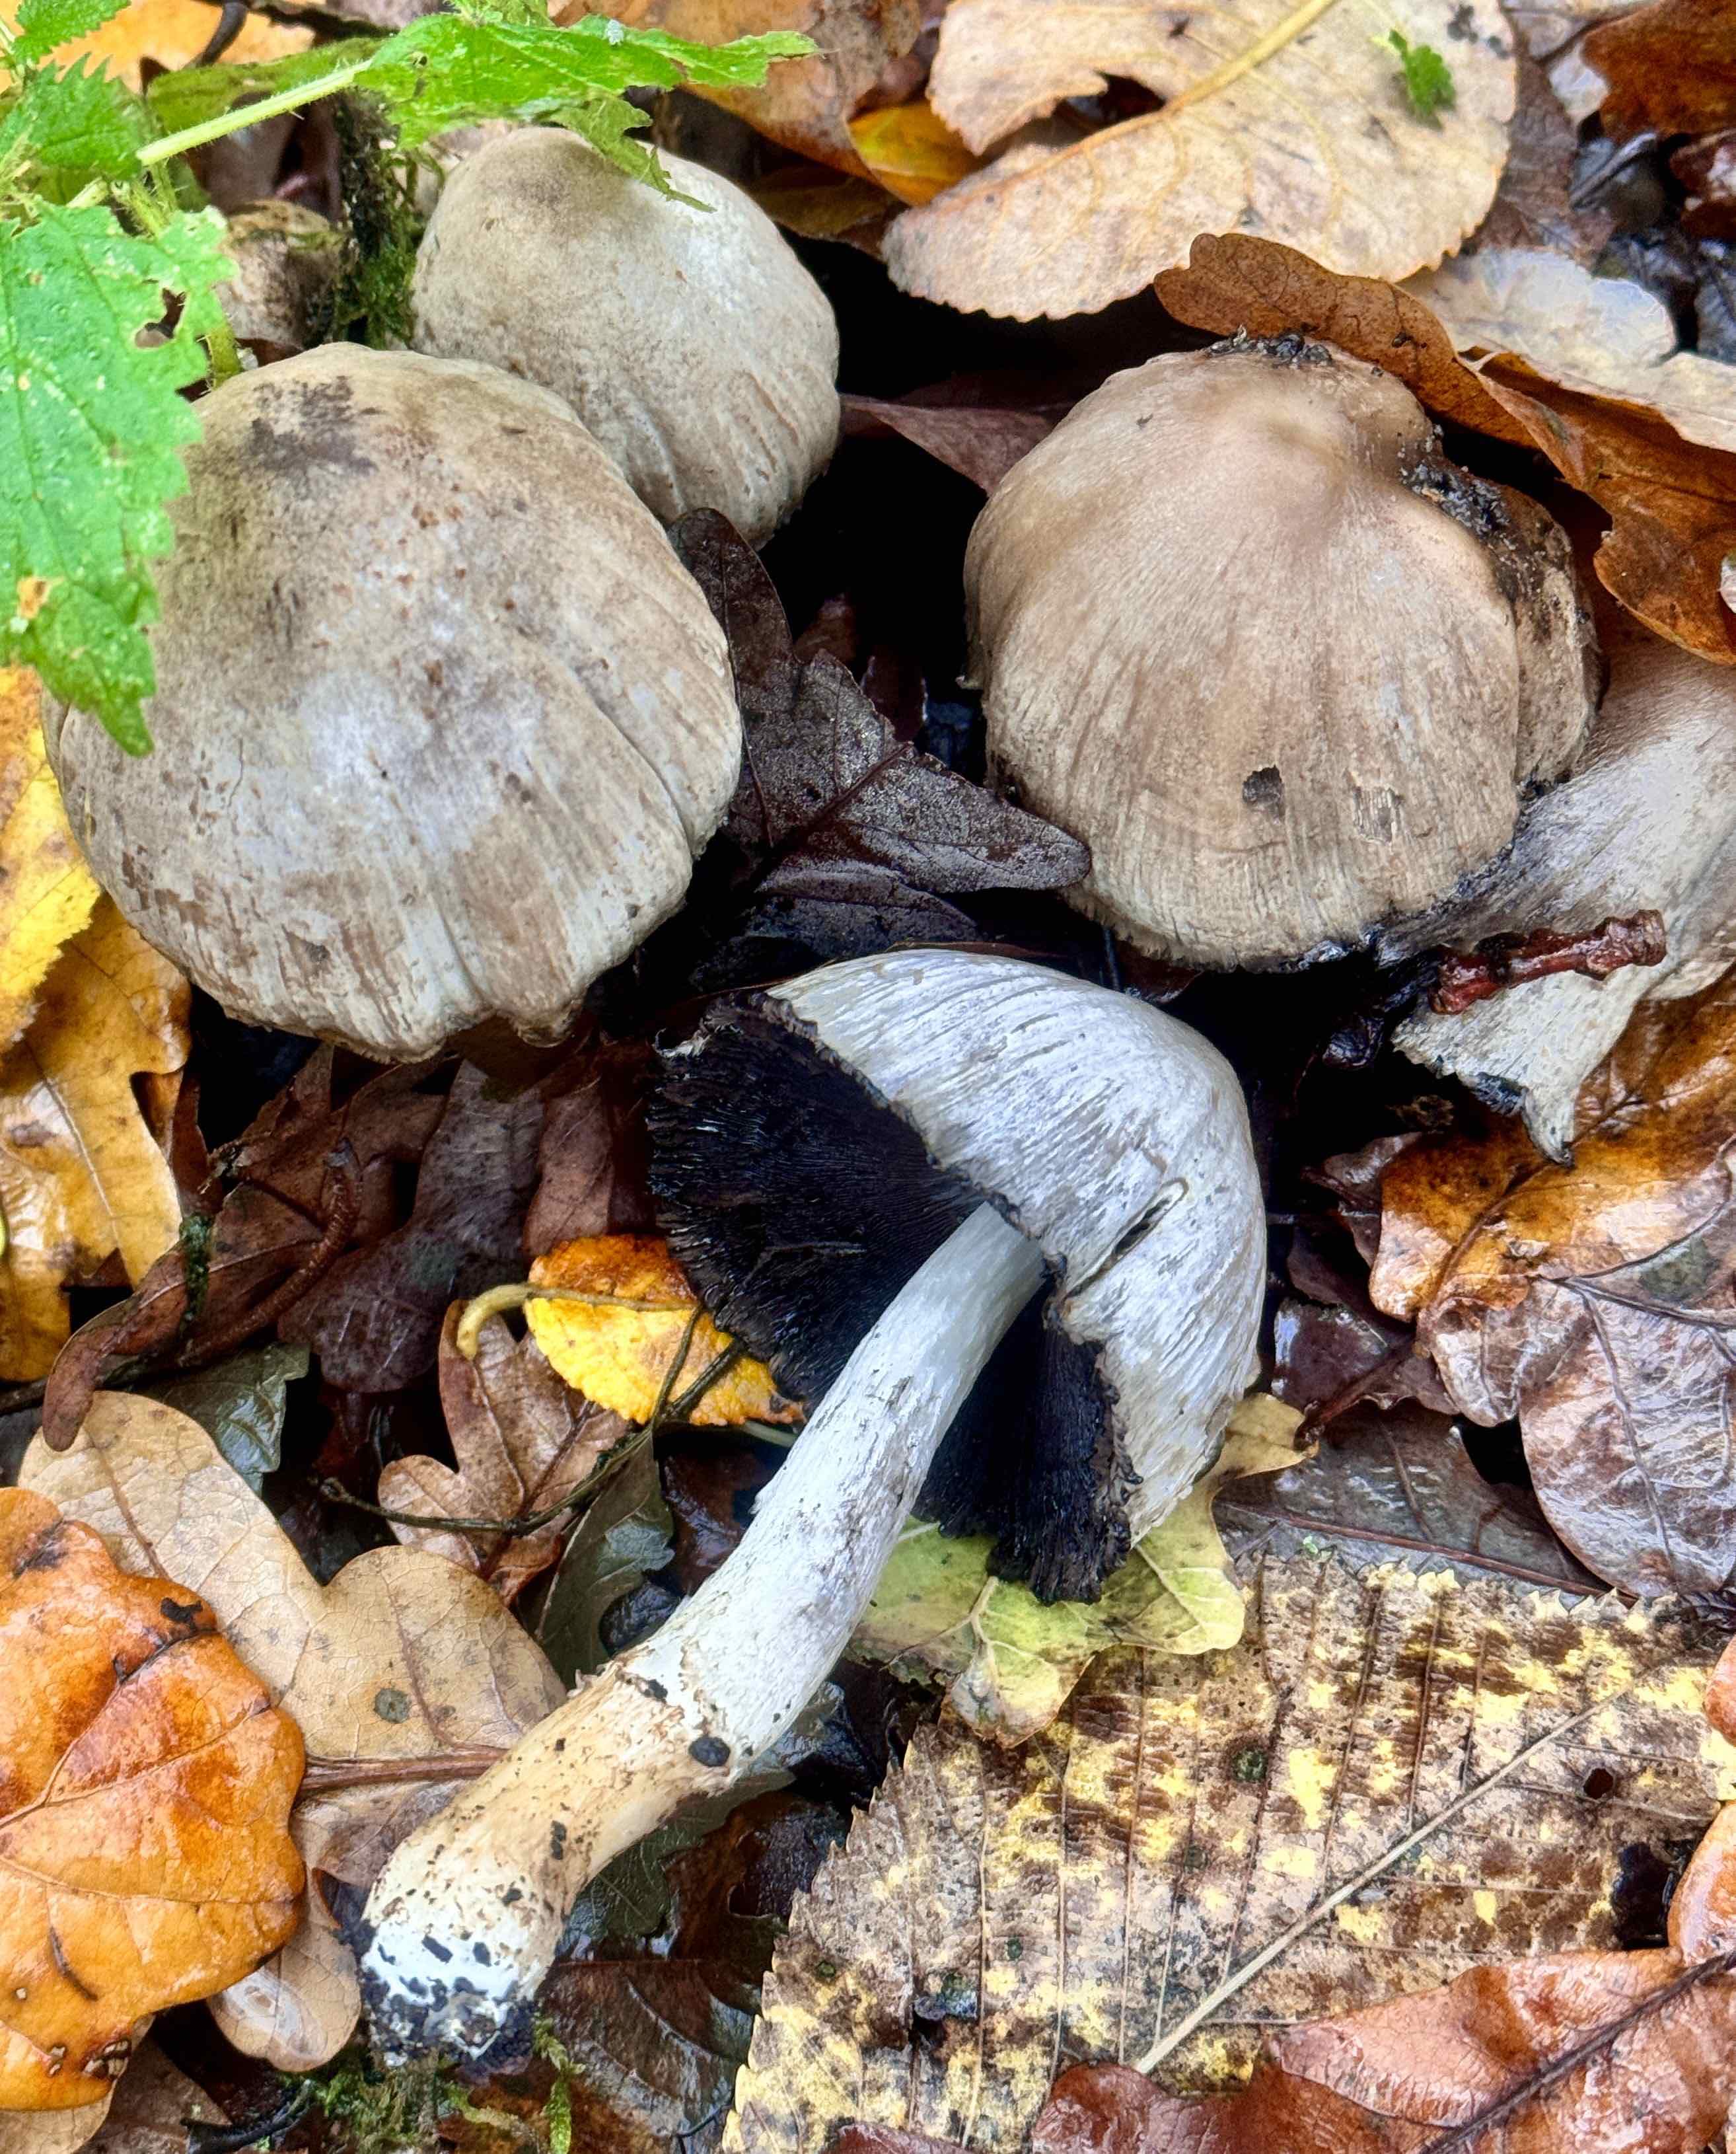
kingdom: Fungi
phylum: Basidiomycota
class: Agaricomycetes
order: Agaricales
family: Psathyrellaceae
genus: Coprinopsis
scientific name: Coprinopsis atramentaria
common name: almindelig blækhat
